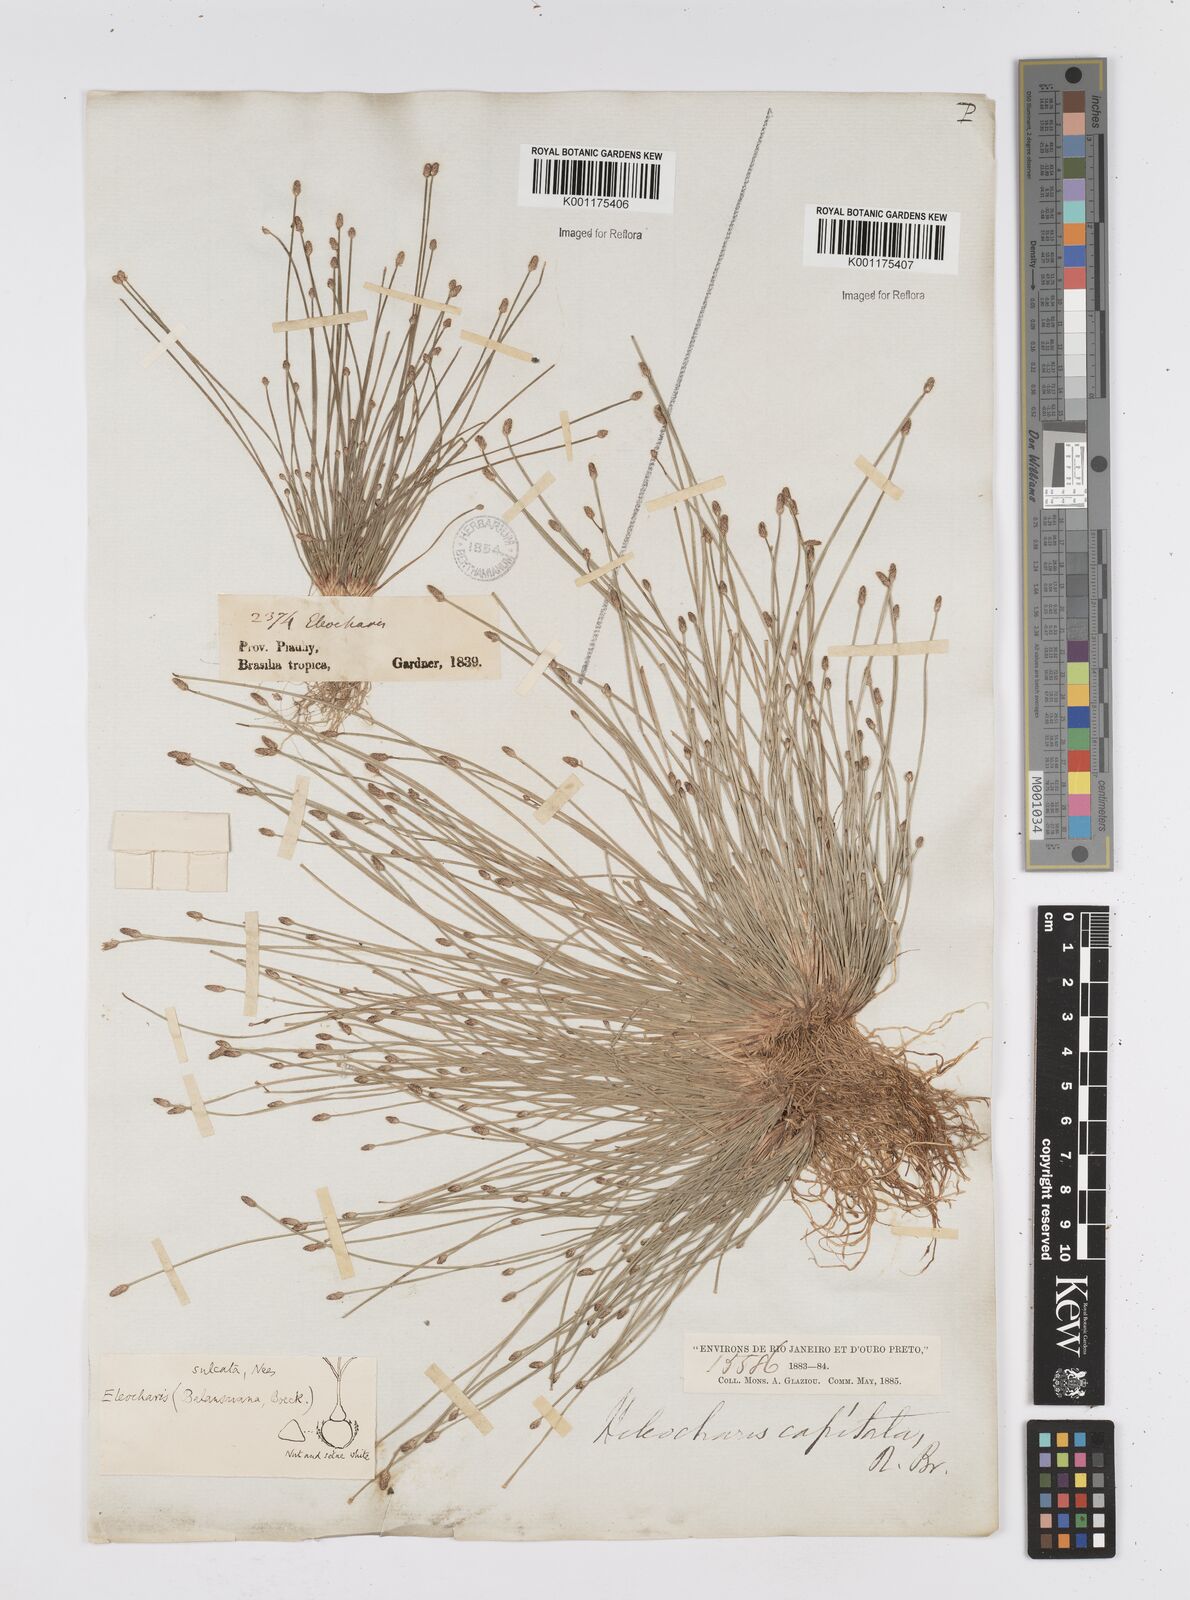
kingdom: Plantae
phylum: Tracheophyta
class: Liliopsida
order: Poales
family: Cyperaceae
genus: Eleocharis
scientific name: Eleocharis filiculmis
